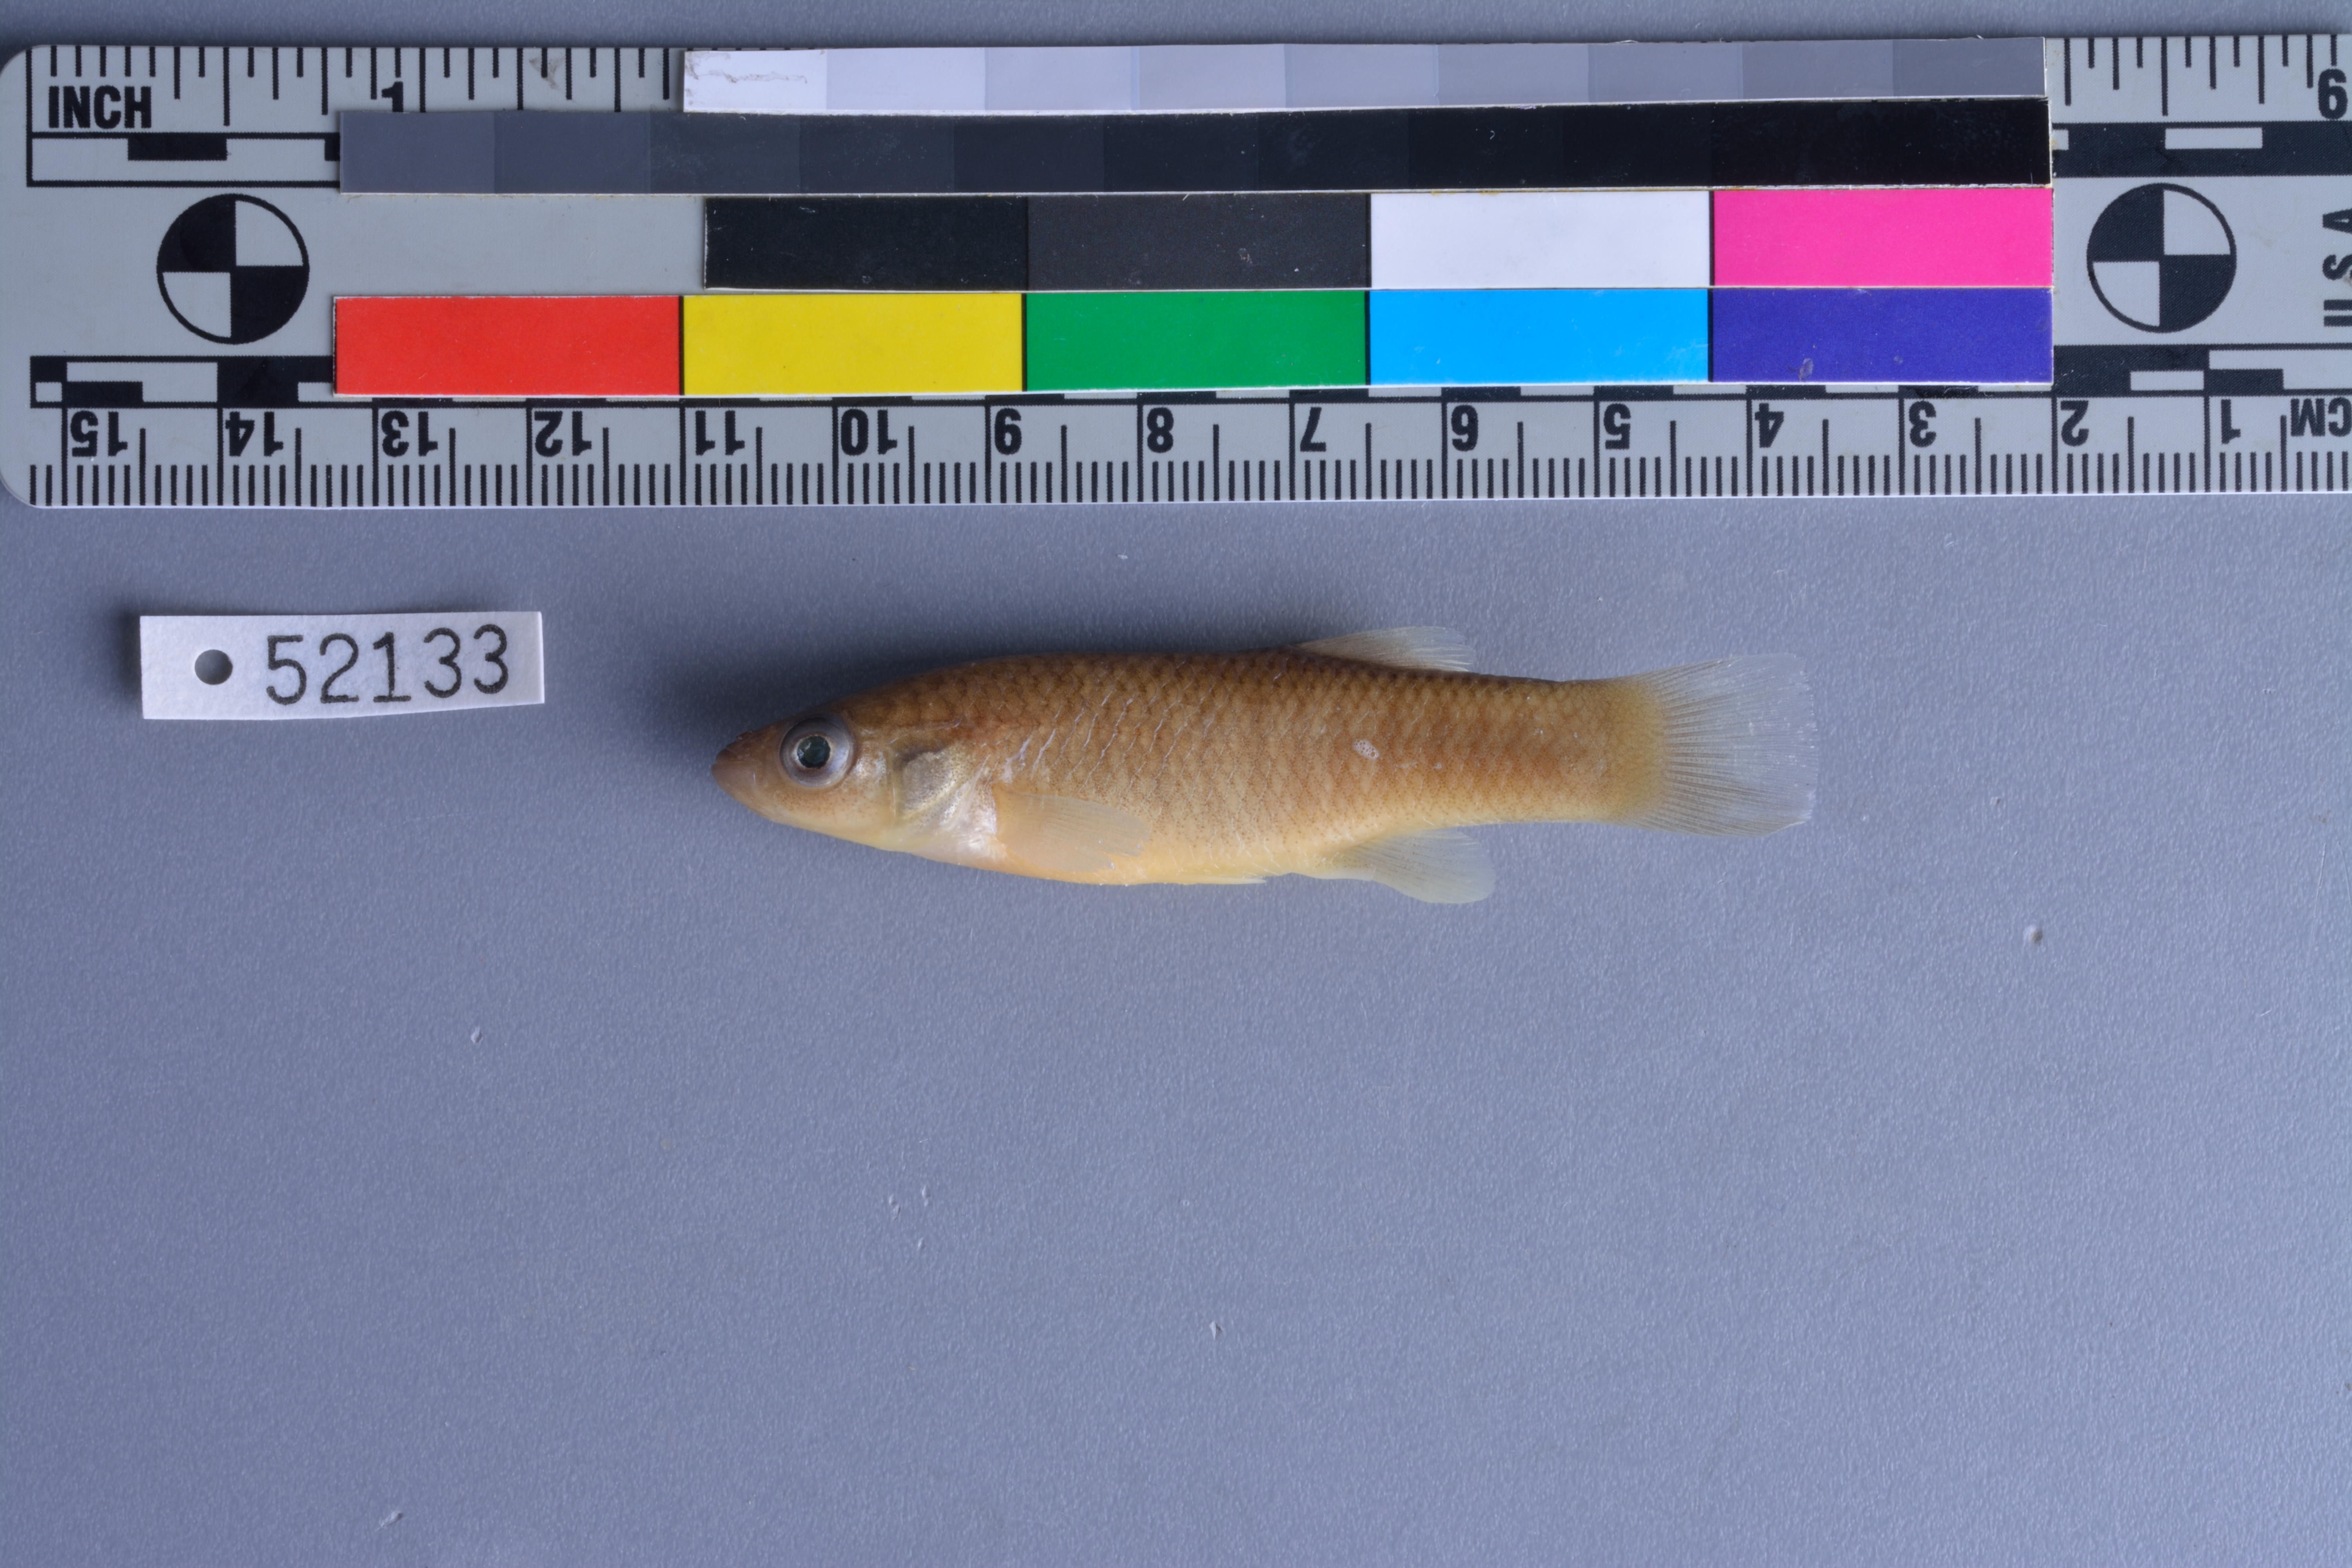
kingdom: Animalia
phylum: Chordata
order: Cyprinodontiformes
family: Fundulidae
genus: Fundulus
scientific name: Fundulus grandis
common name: Gulf killifish
